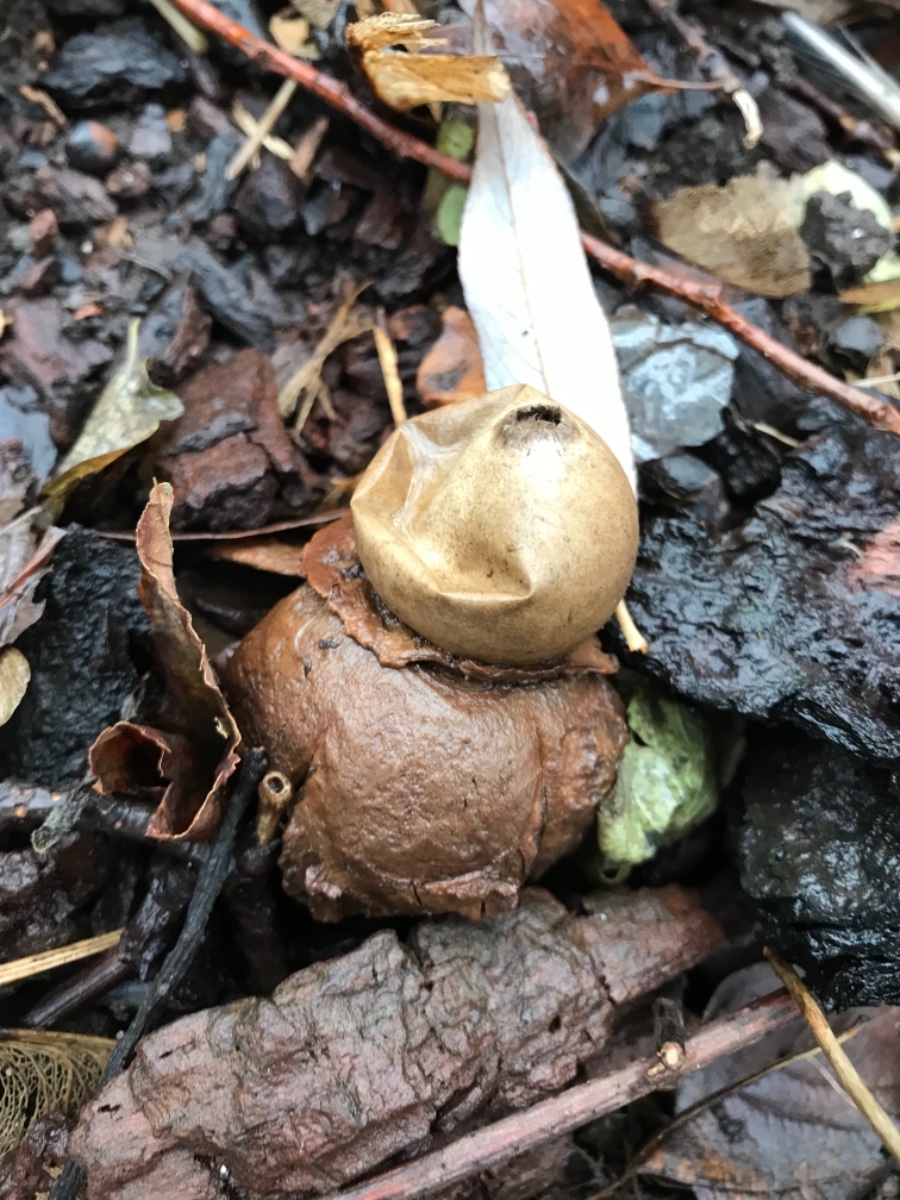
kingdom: Fungi
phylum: Basidiomycota
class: Agaricomycetes
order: Geastrales
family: Geastraceae
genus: Geastrum
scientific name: Geastrum michelianum
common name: kødet stjernebold
